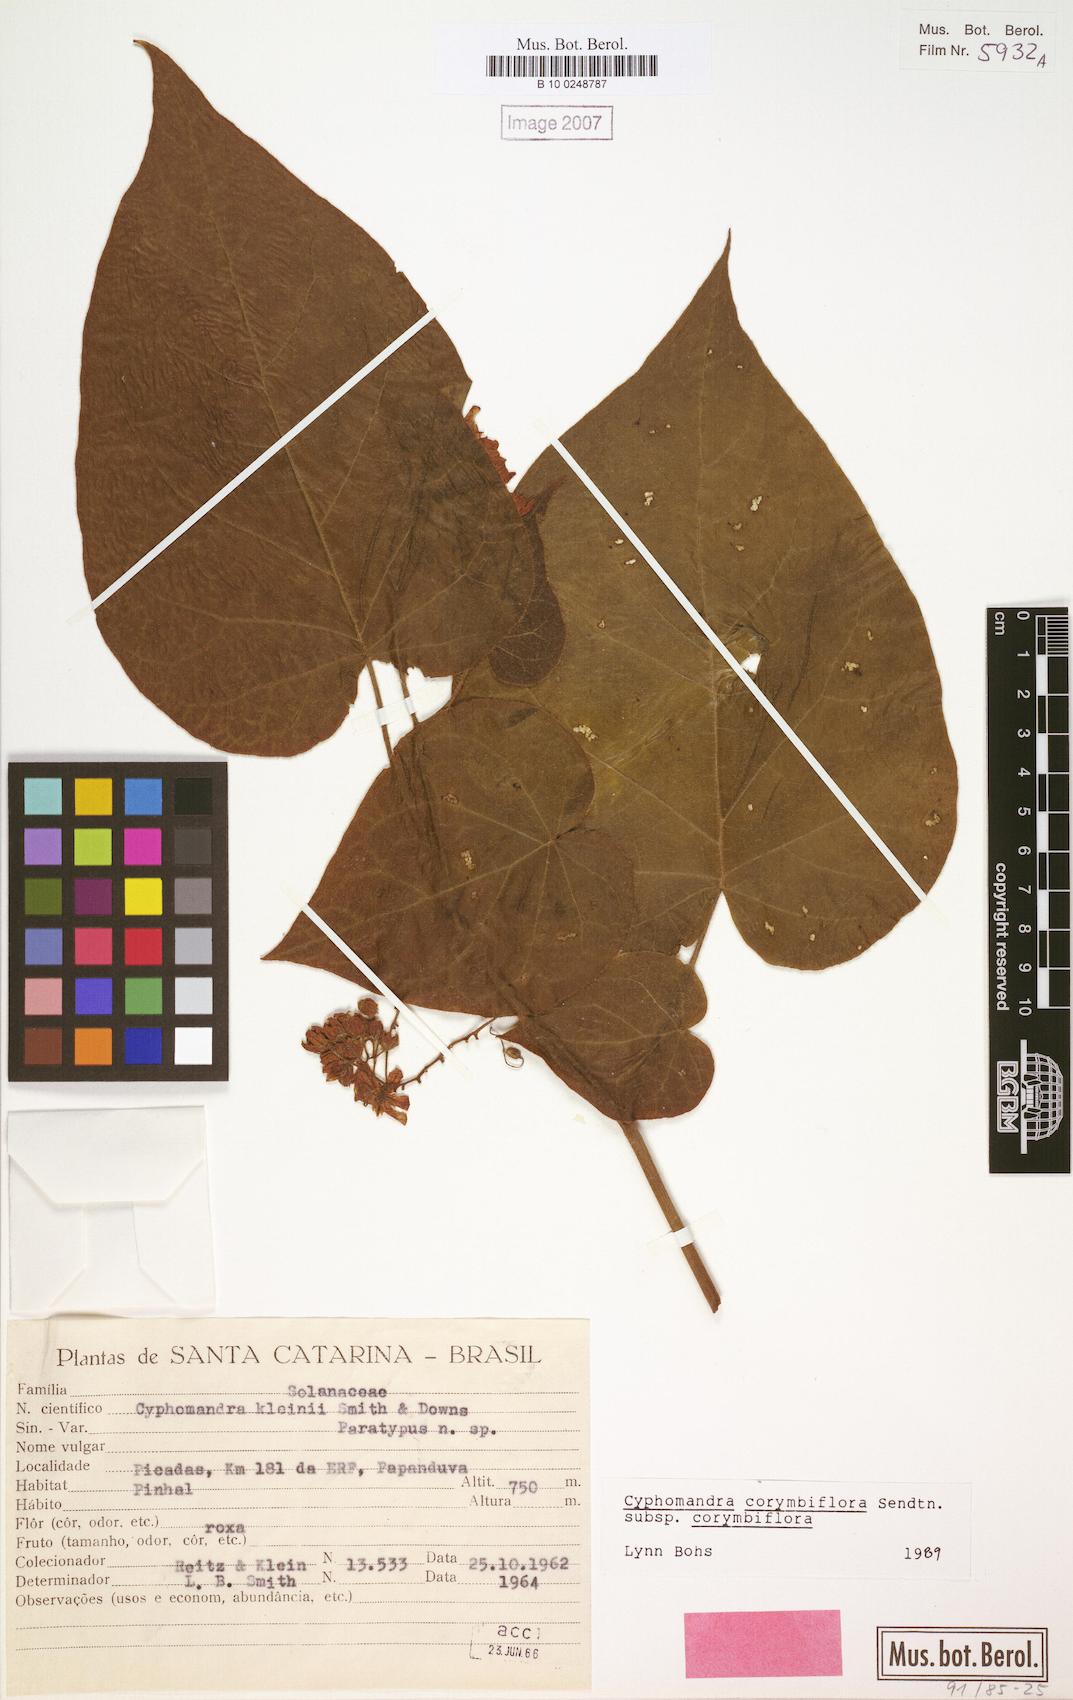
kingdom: Plantae
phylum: Tracheophyta
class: Magnoliopsida
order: Solanales
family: Solanaceae
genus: Solanum
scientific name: Solanum corymbiflorum
